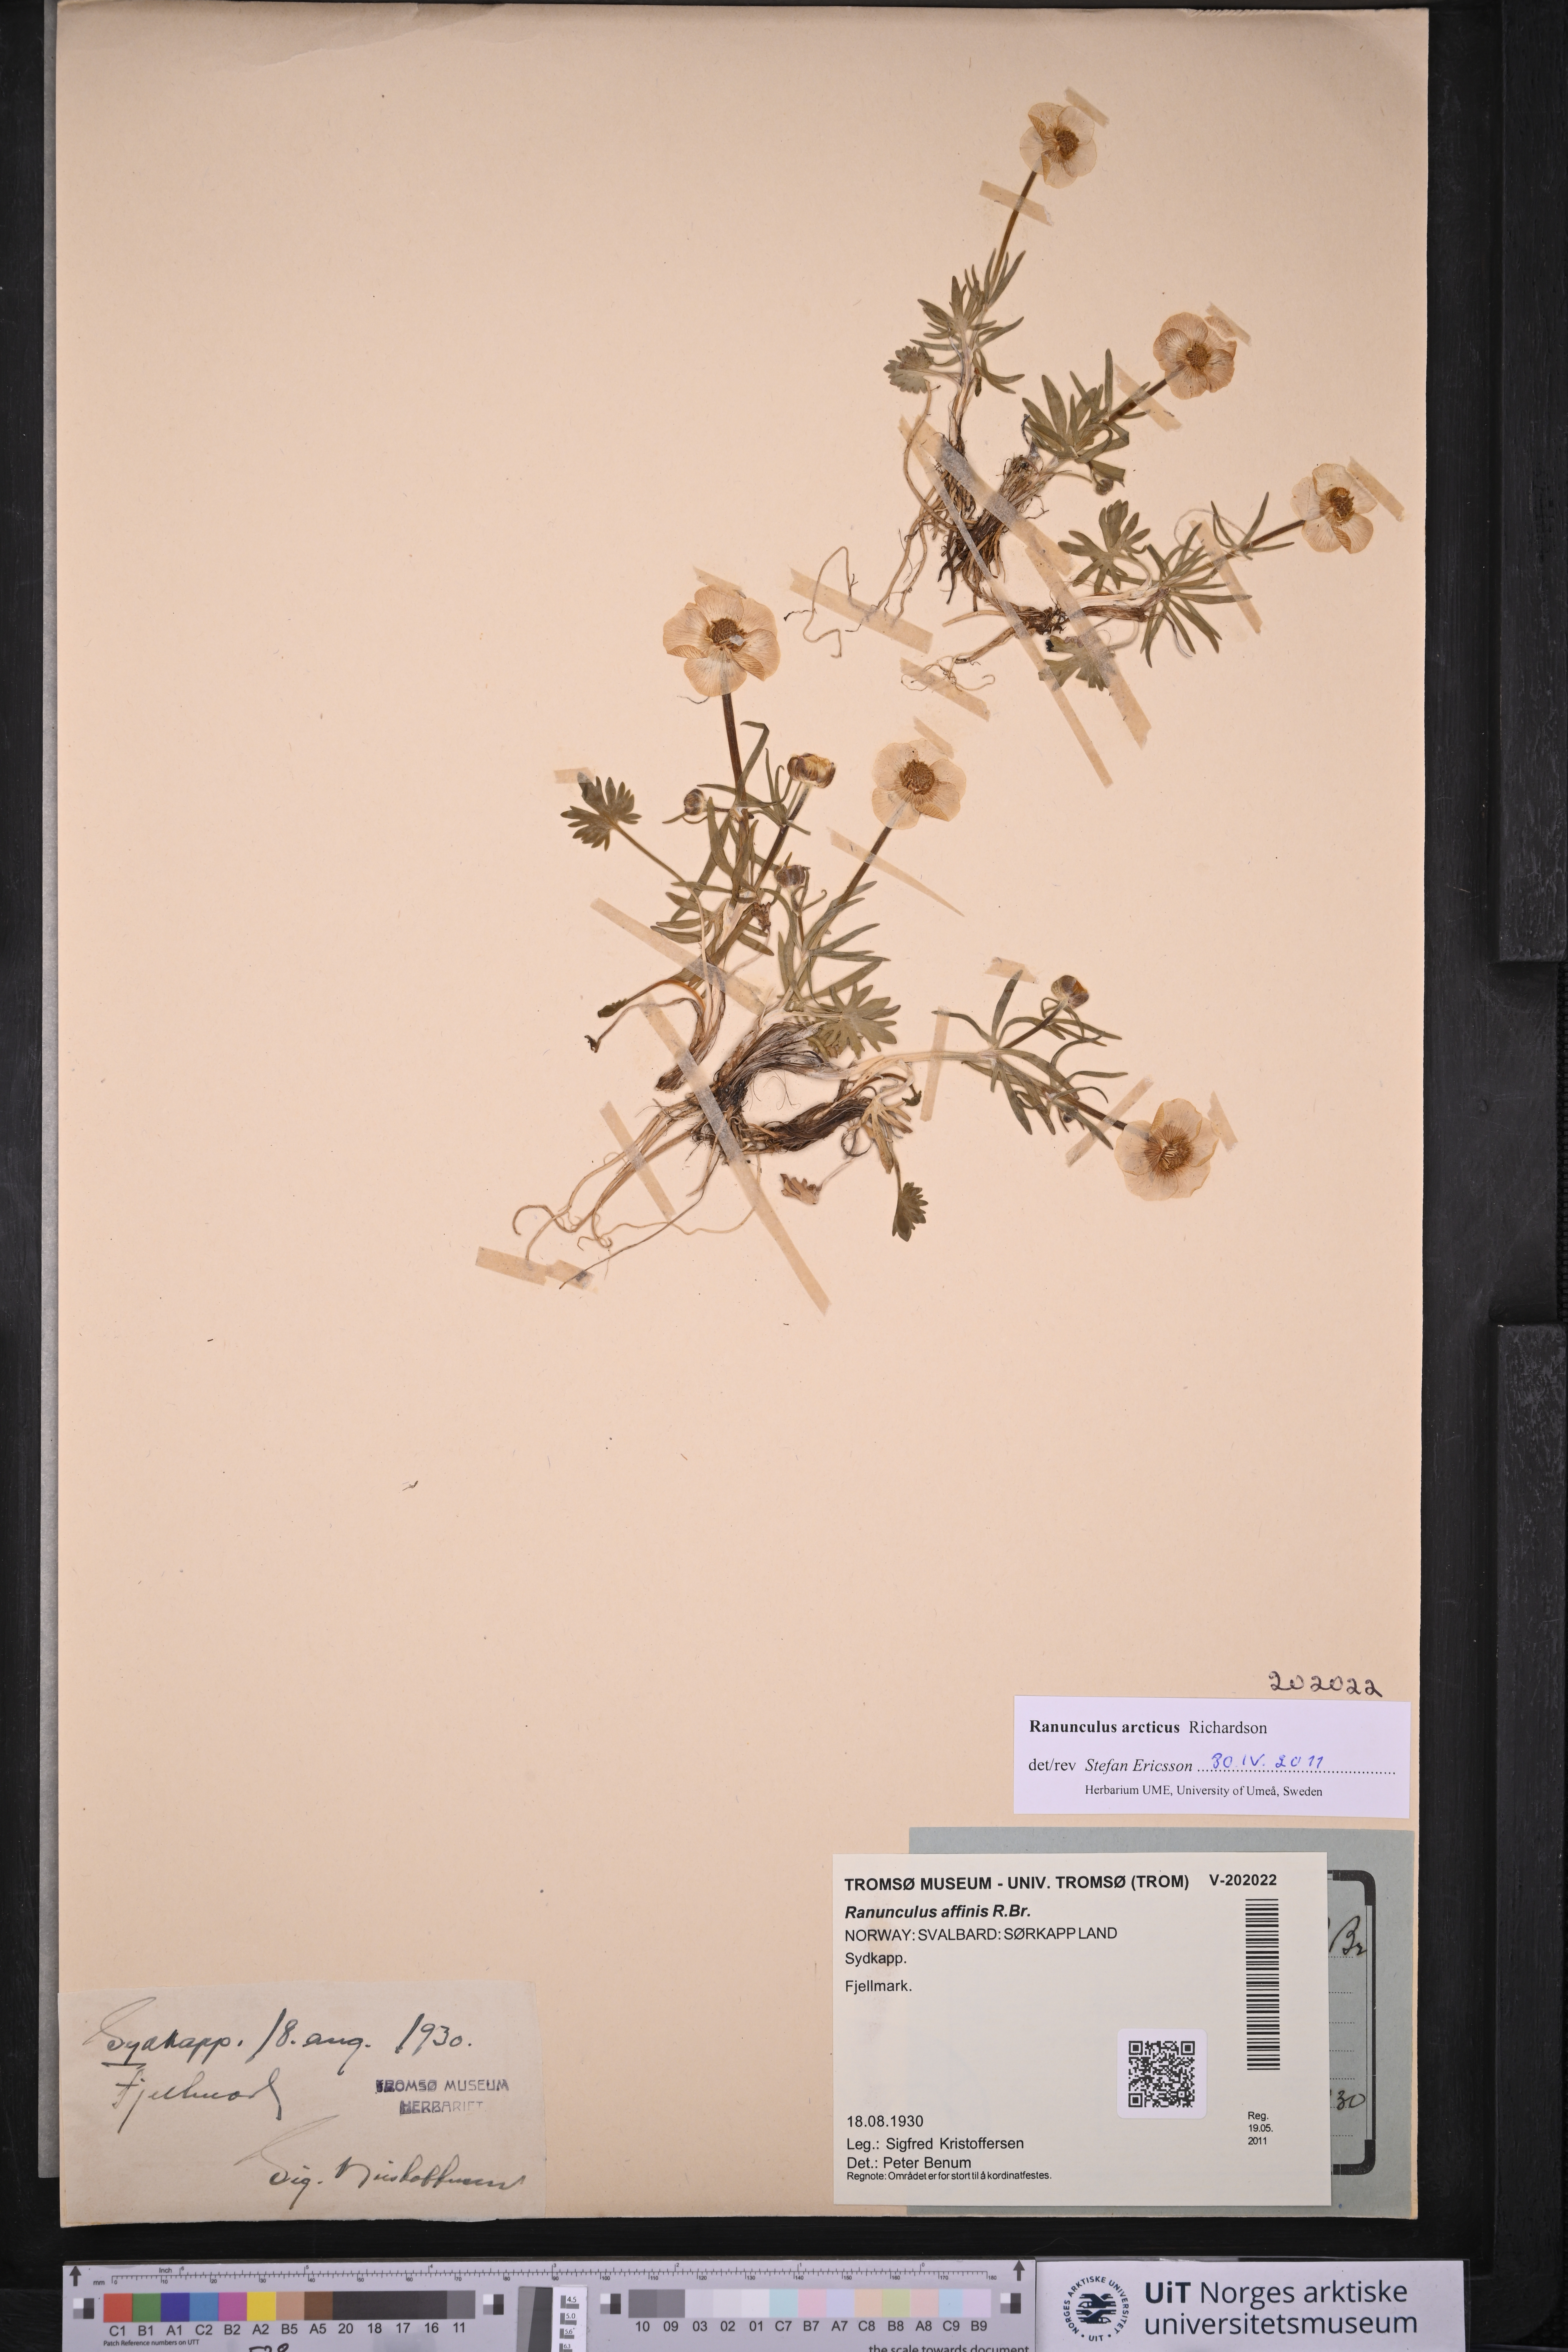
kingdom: Plantae
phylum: Tracheophyta
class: Magnoliopsida
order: Ranunculales
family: Ranunculaceae
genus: Ranunculus
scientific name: Ranunculus arcticus
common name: Bird's-foot buttercup
